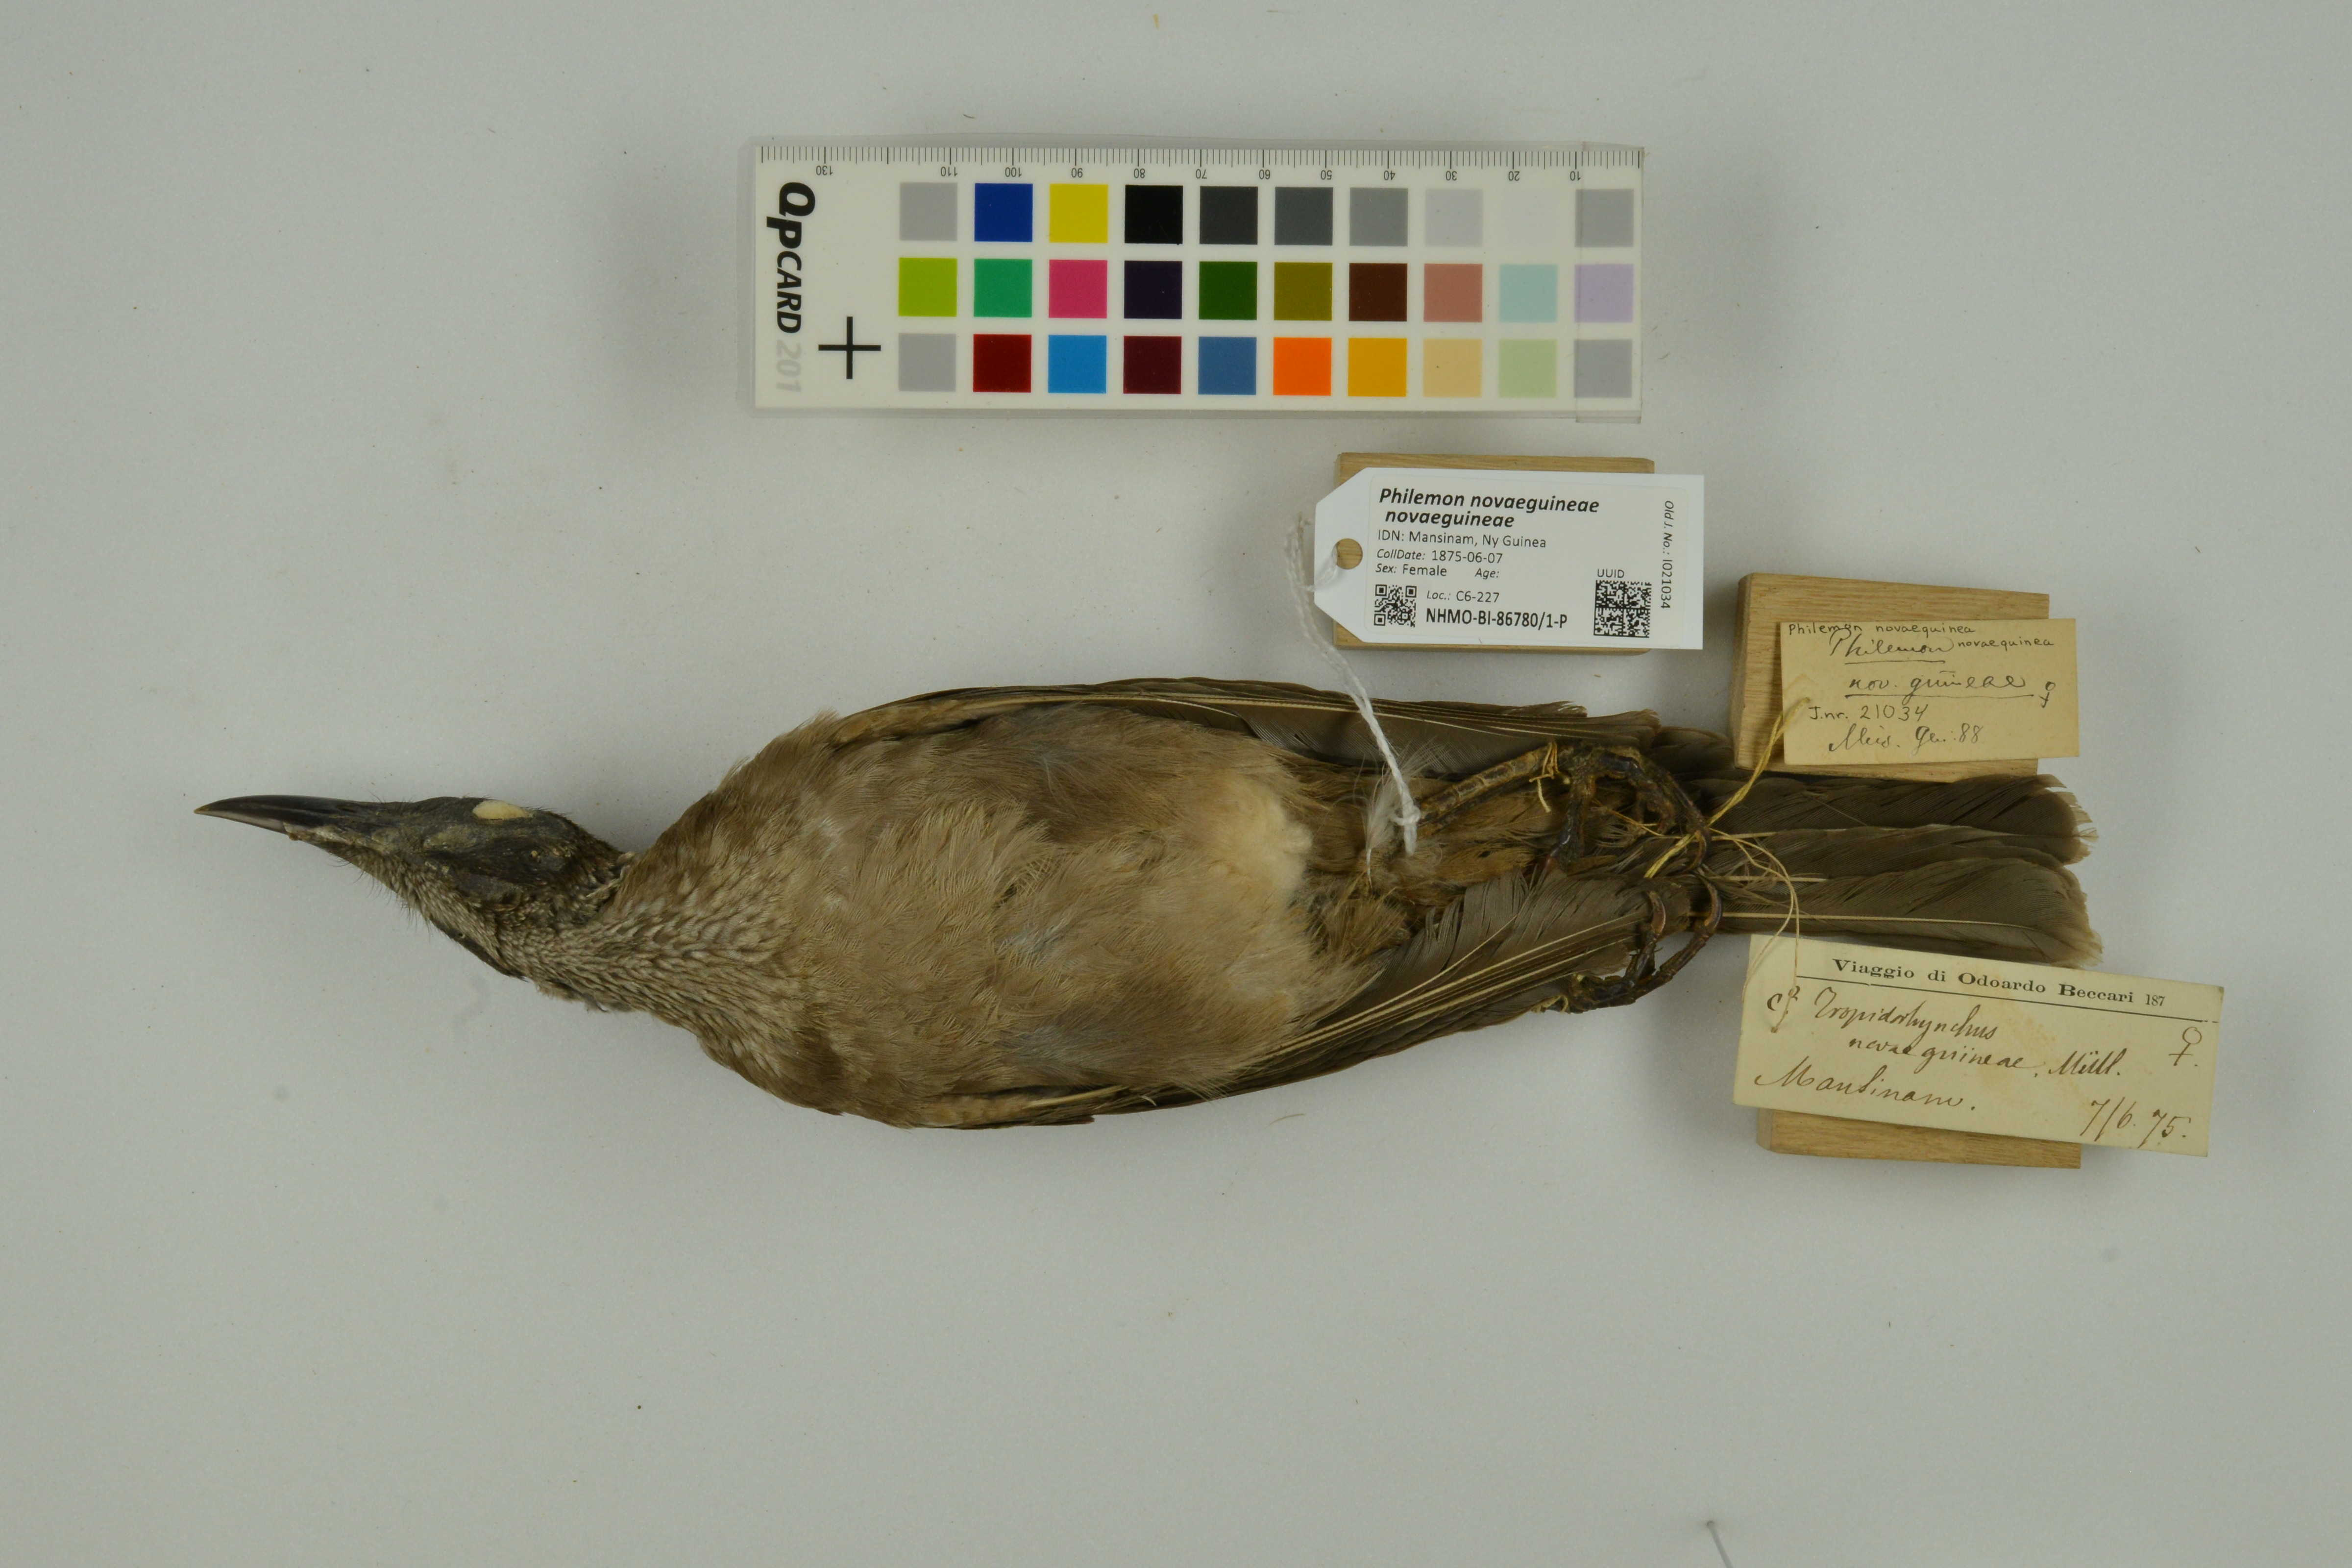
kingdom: Animalia
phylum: Chordata
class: Aves
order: Passeriformes
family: Meliphagidae
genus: Philemon
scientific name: Philemon novaeguineae
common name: New guinea friarbird
